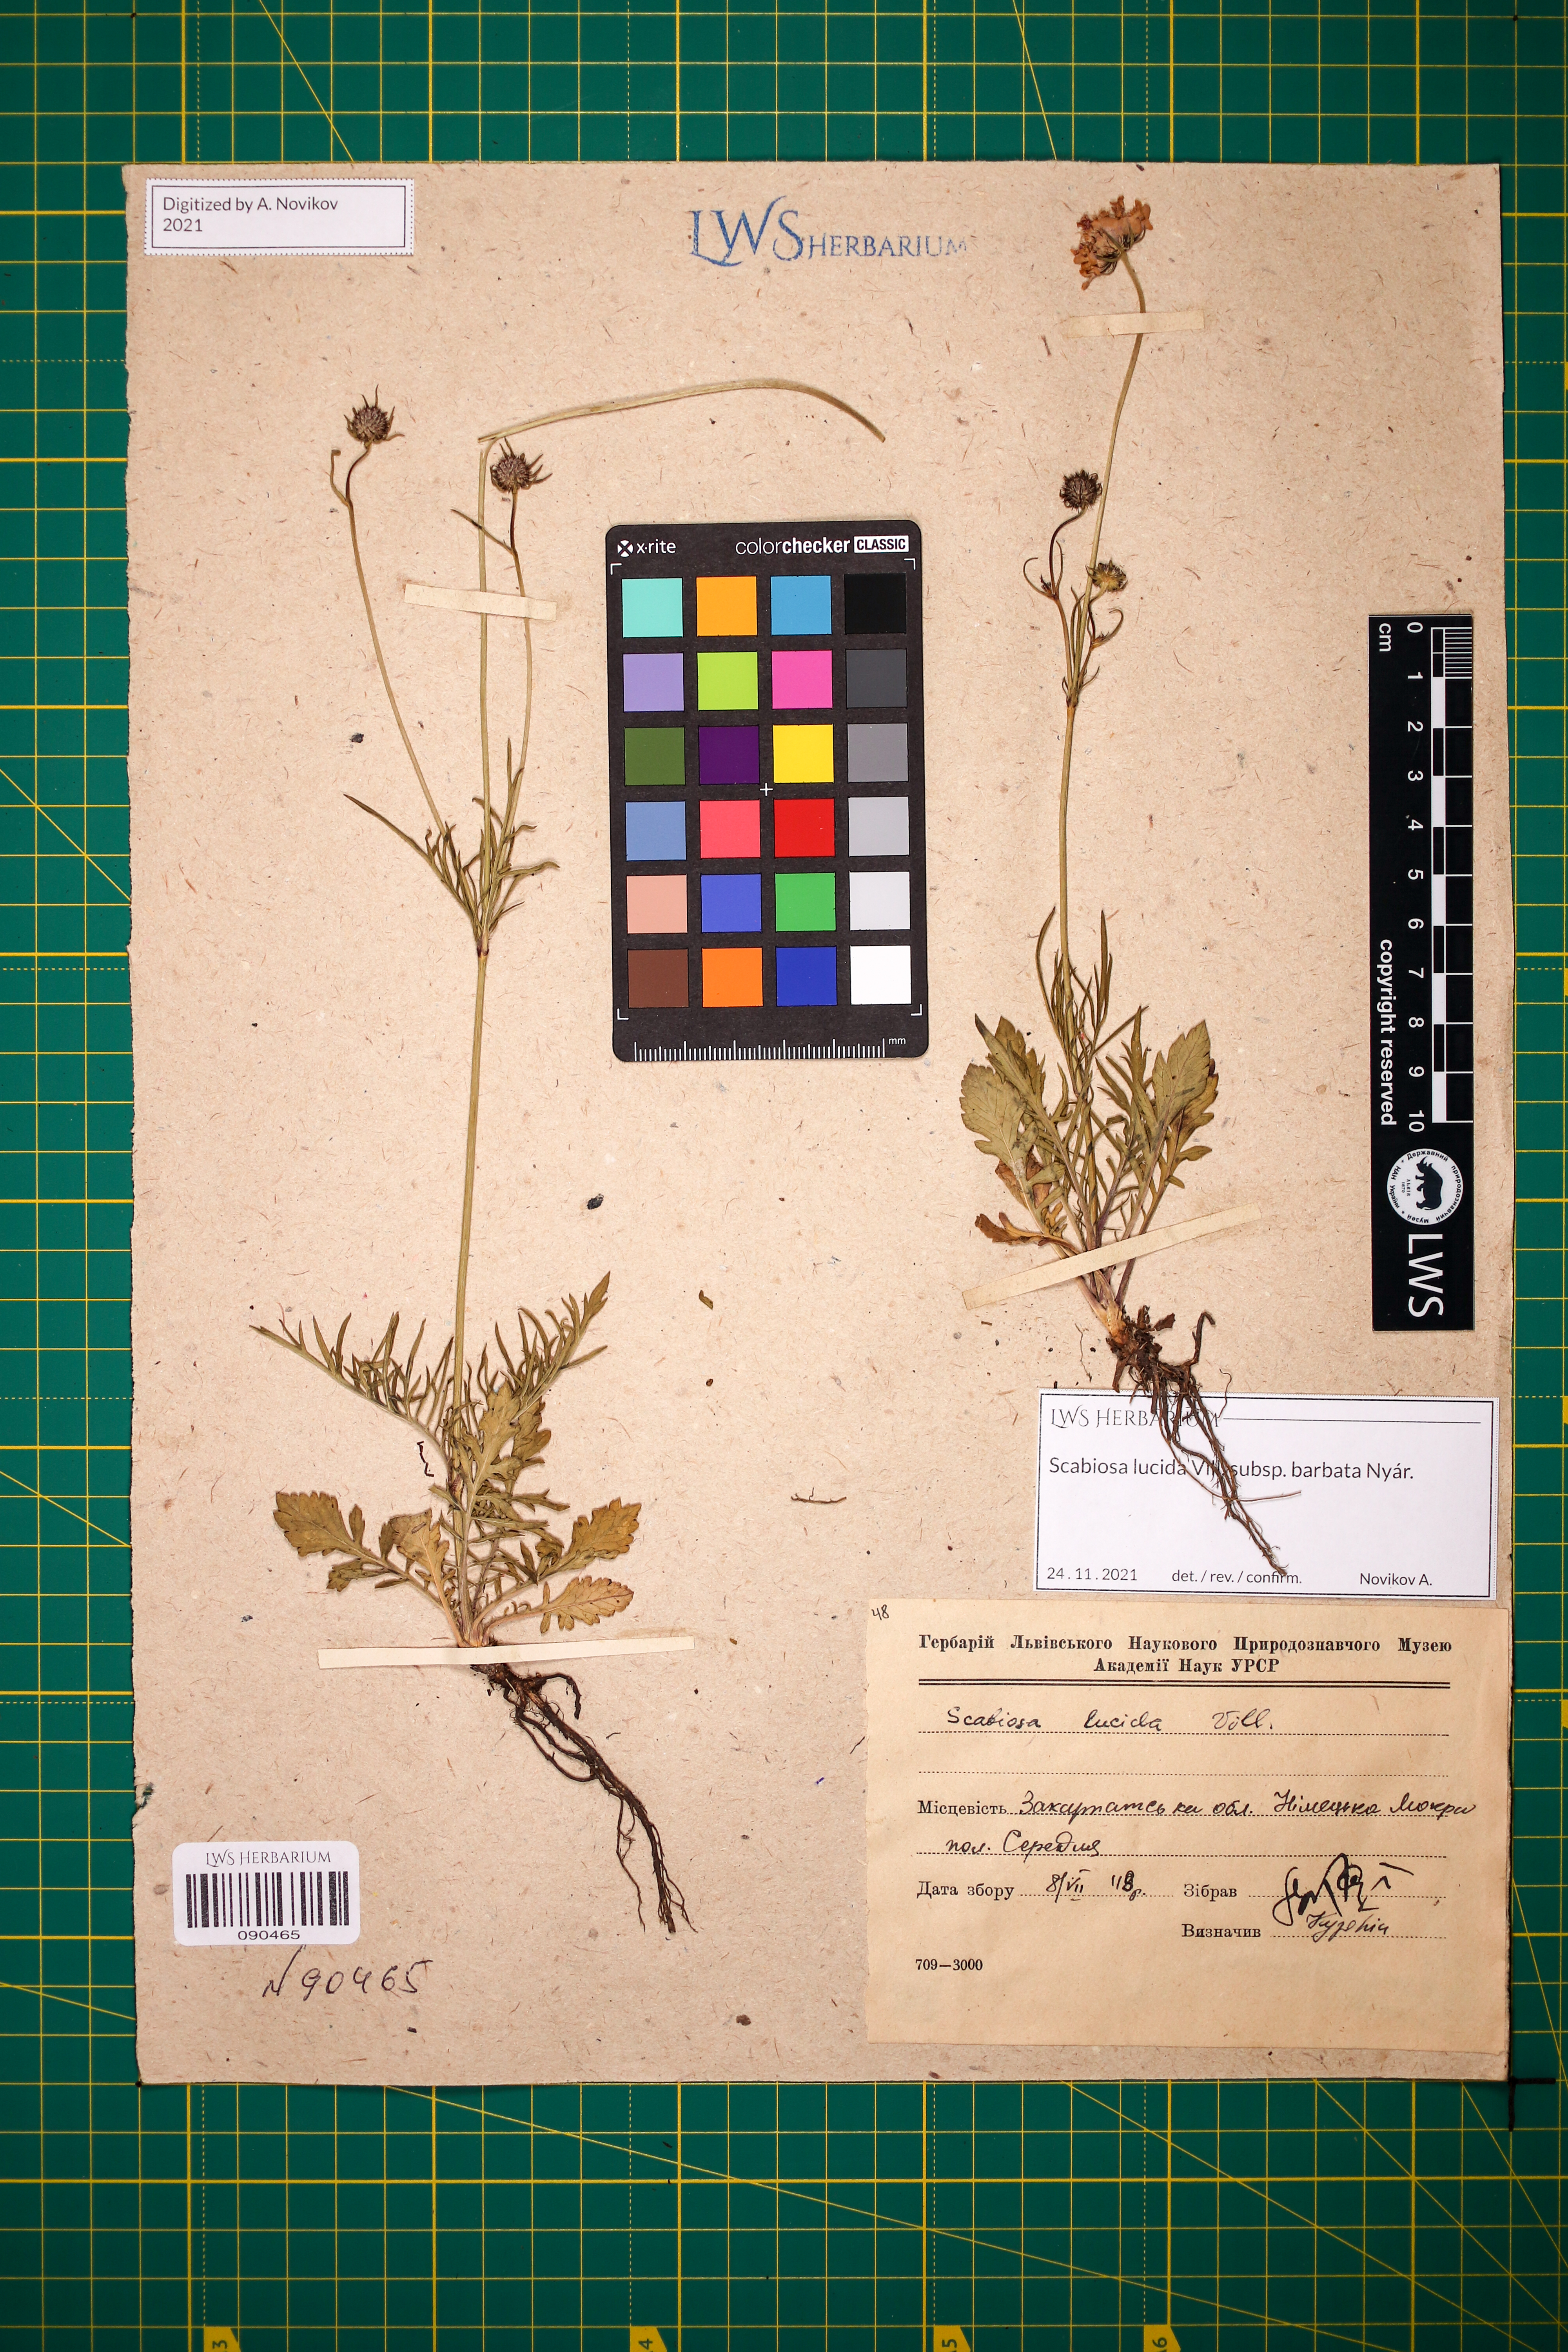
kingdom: Plantae
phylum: Tracheophyta
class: Magnoliopsida
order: Dipsacales
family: Caprifoliaceae
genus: Scabiosa
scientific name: Scabiosa lucida
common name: Shining scabious
